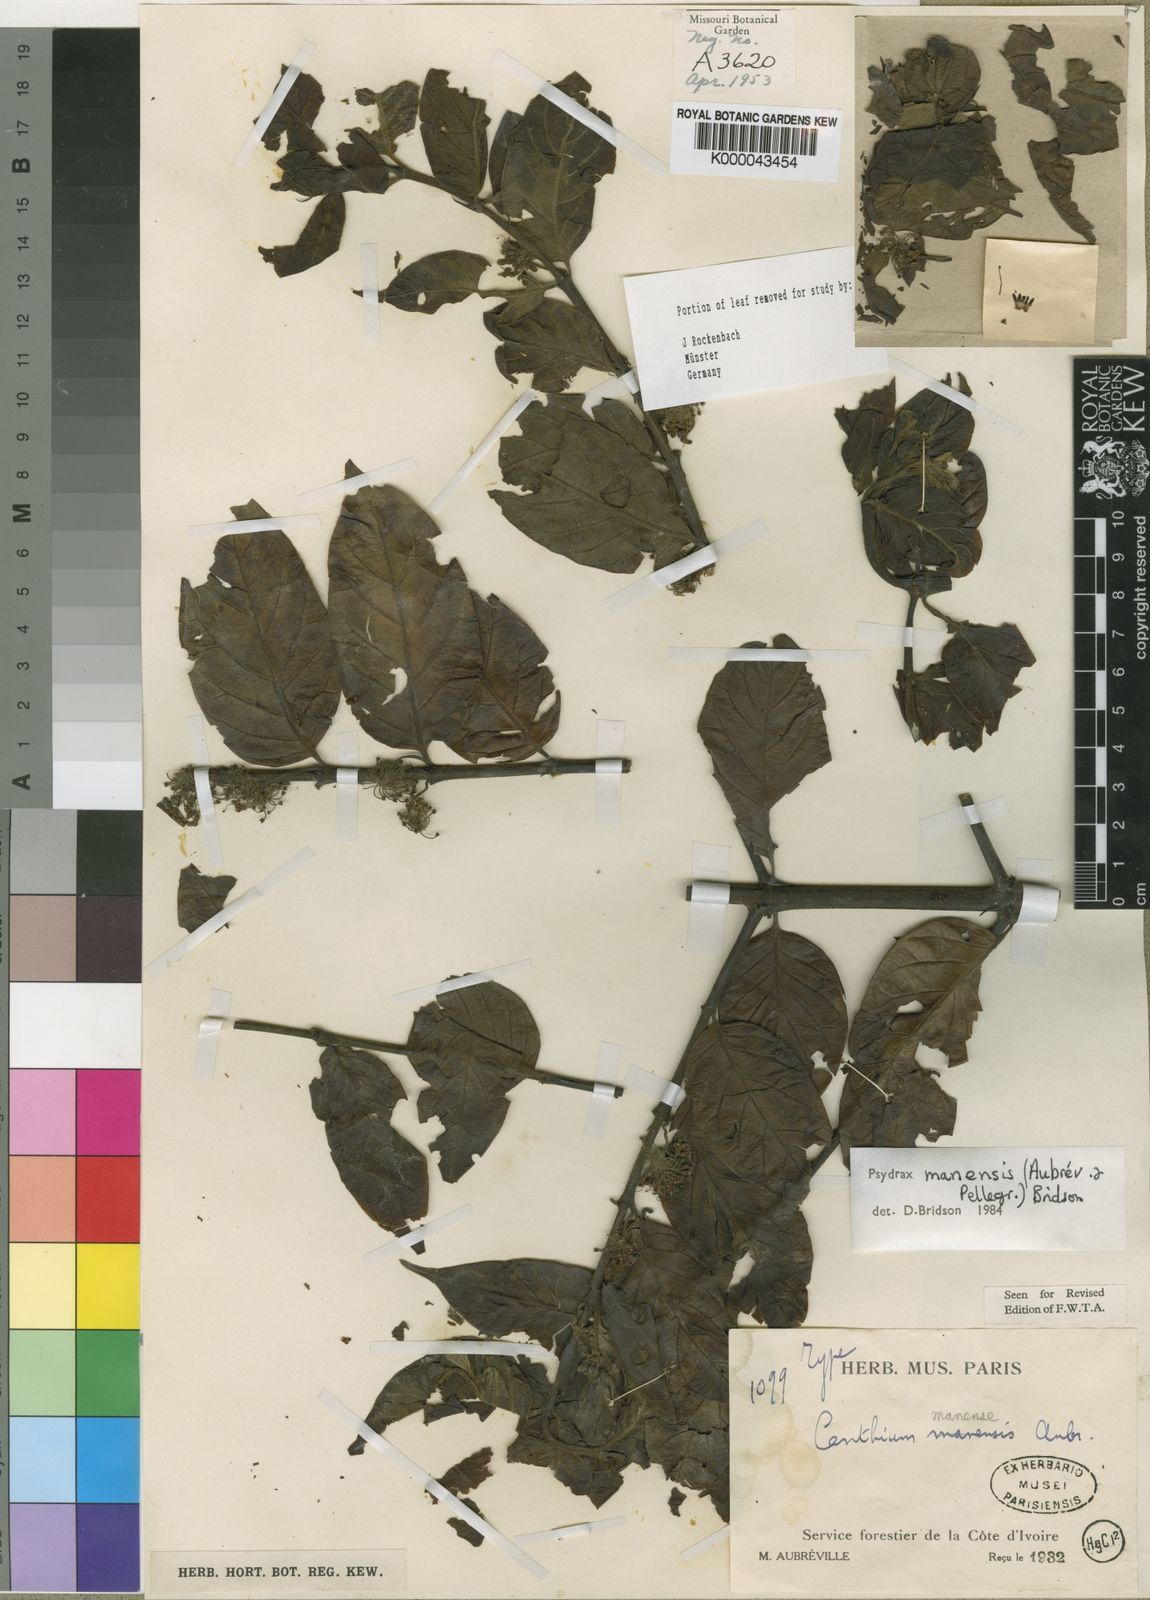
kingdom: Plantae
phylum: Tracheophyta
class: Magnoliopsida
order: Gentianales
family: Rubiaceae
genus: Psydrax
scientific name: Psydrax
